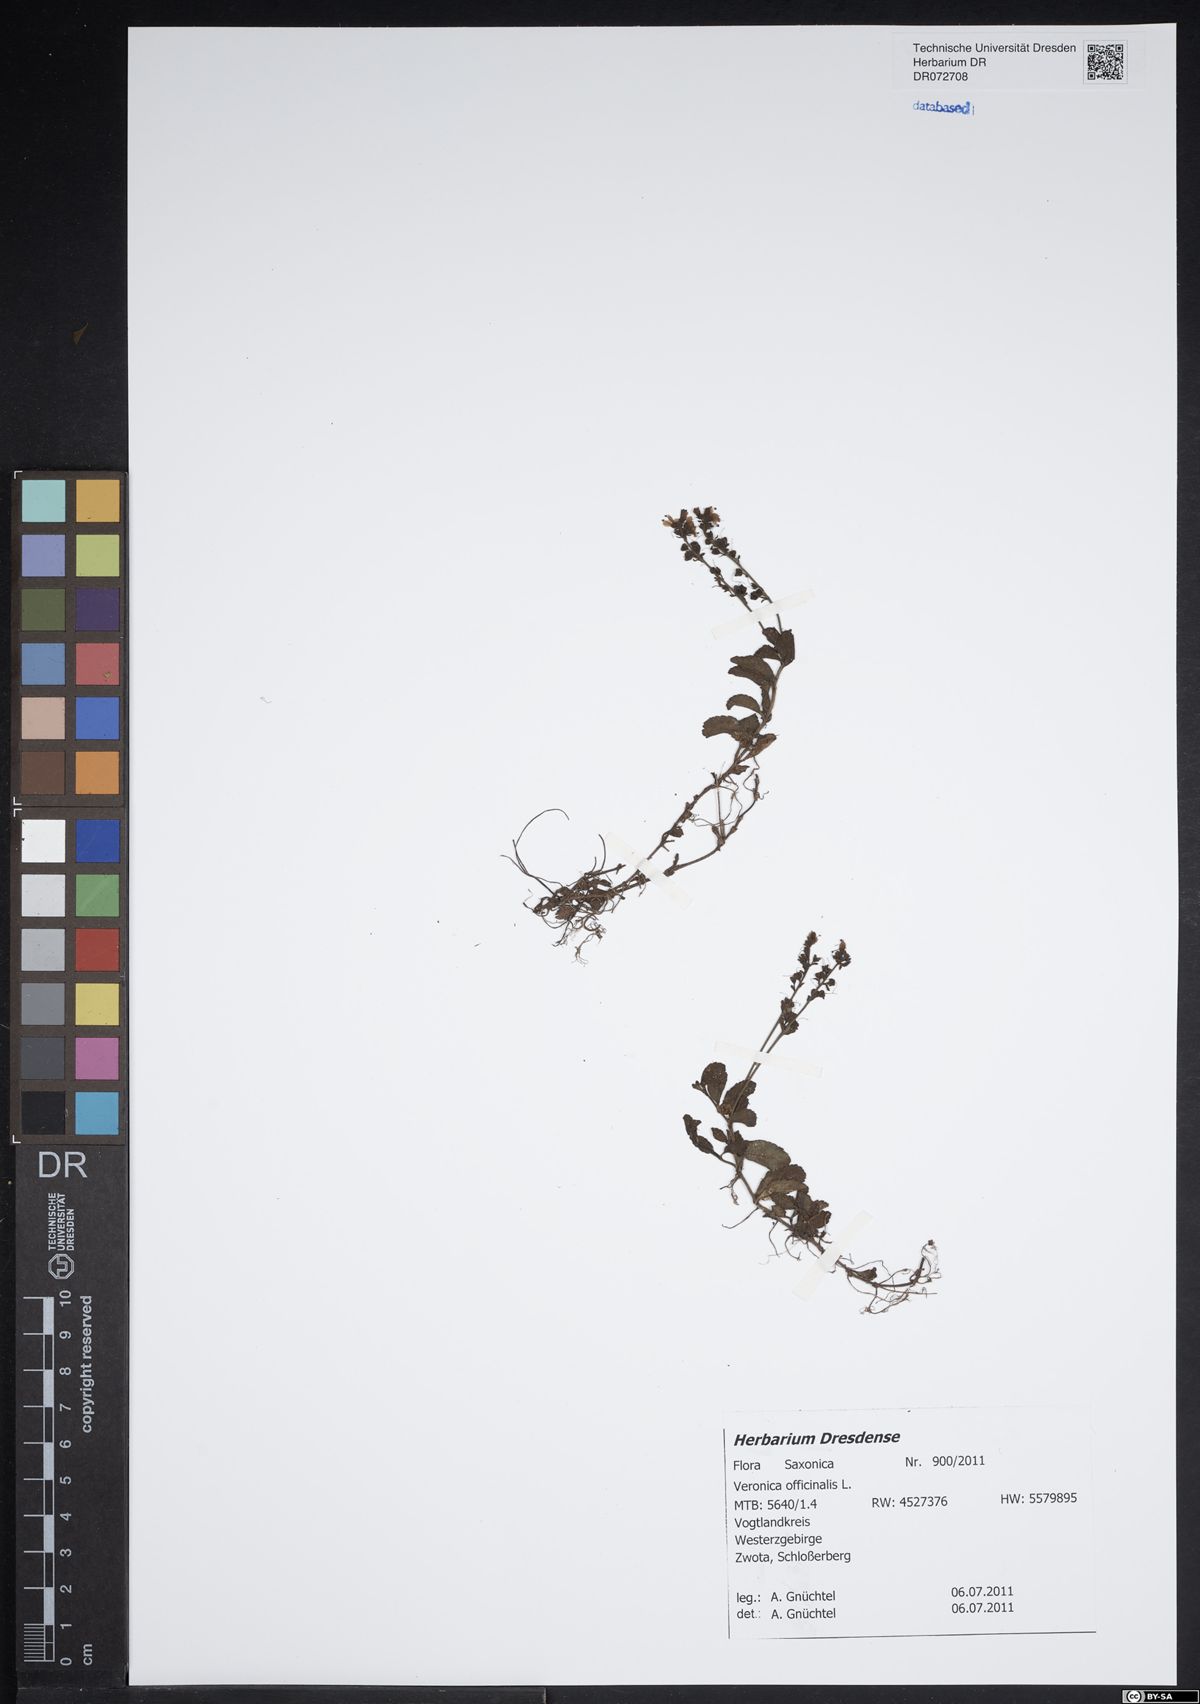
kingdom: Plantae
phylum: Tracheophyta
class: Magnoliopsida
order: Lamiales
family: Plantaginaceae
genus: Veronica
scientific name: Veronica officinalis
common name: Common speedwell
